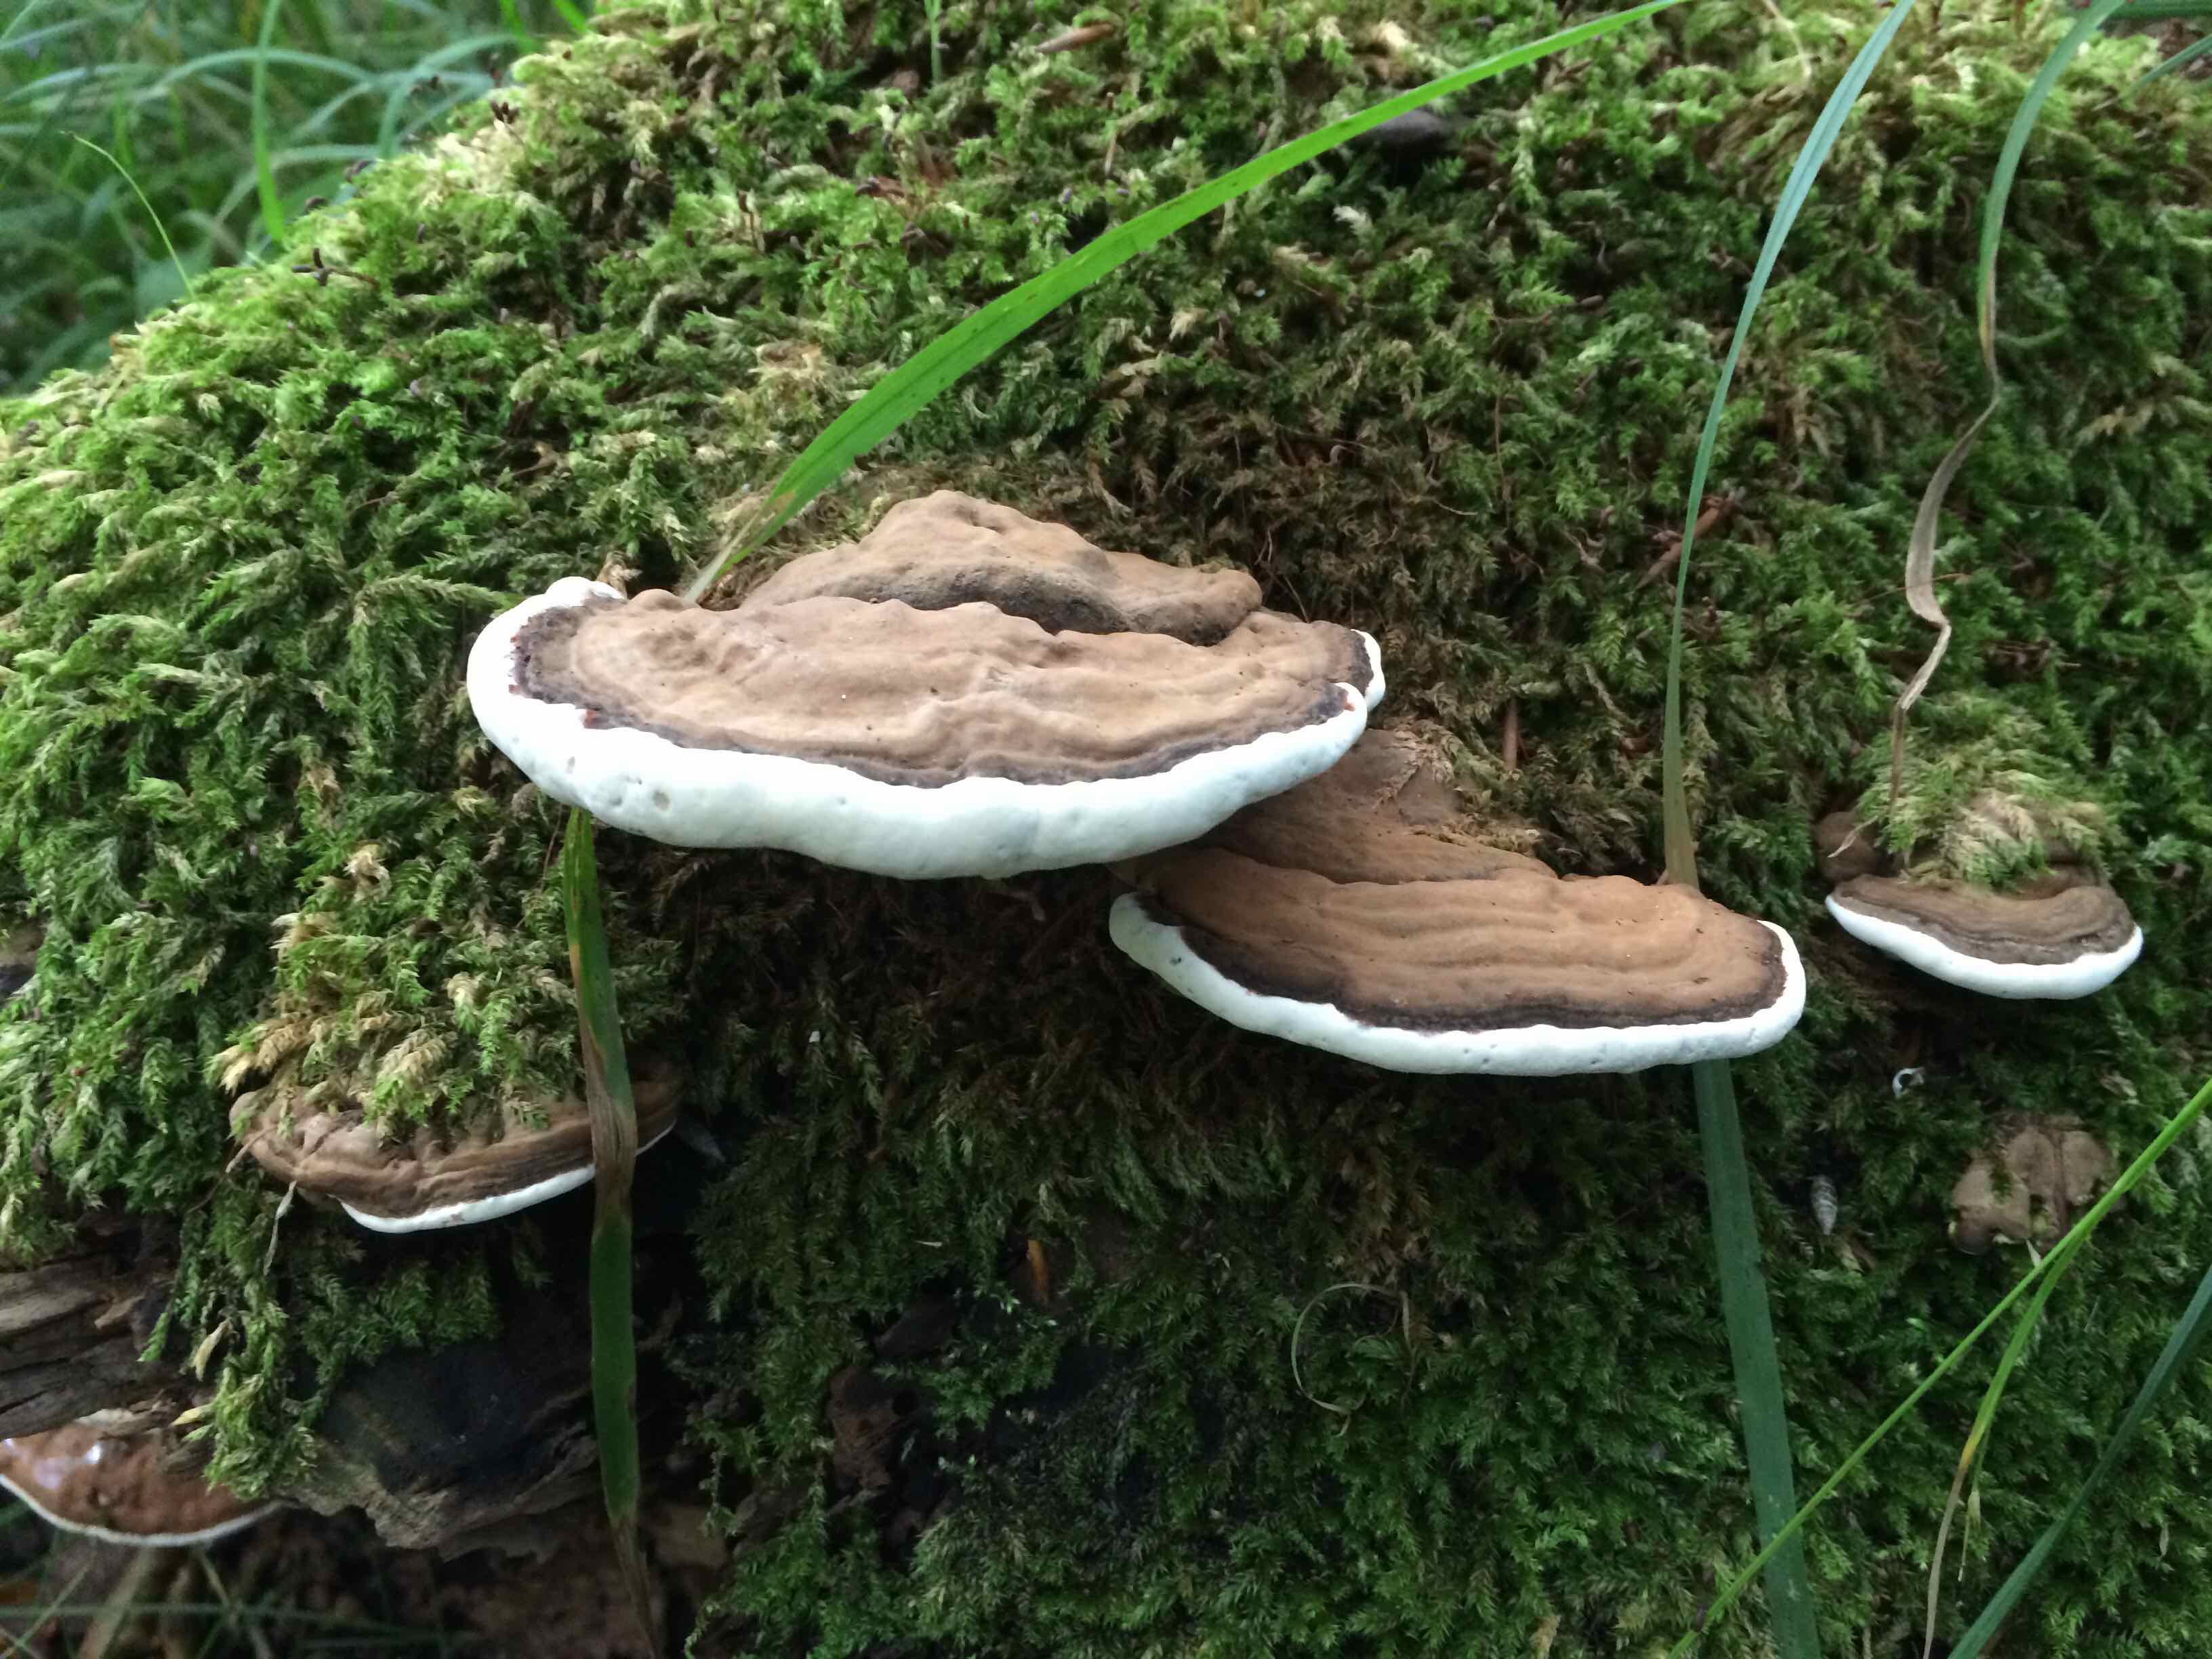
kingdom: Fungi
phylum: Basidiomycota
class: Agaricomycetes
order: Polyporales
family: Polyporaceae
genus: Ganoderma
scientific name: Ganoderma applanatum
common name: flad lakporesvamp
